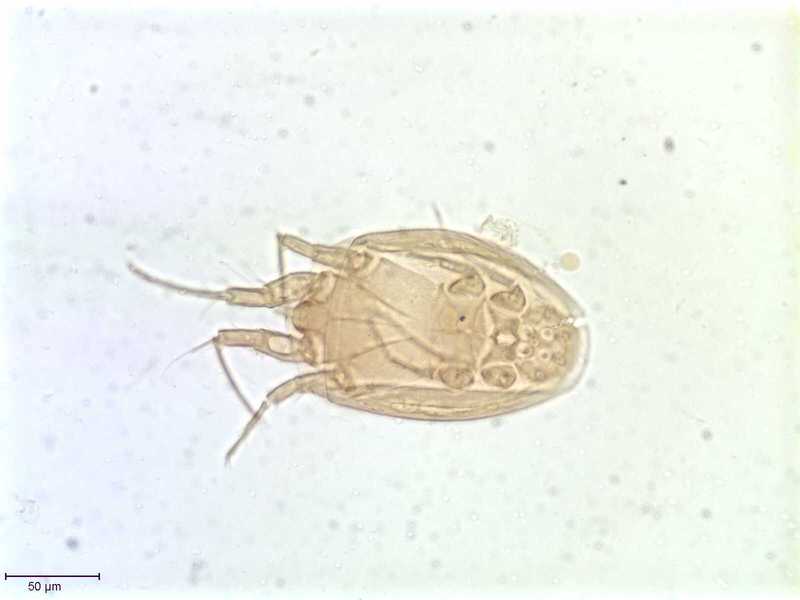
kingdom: Animalia
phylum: Arthropoda
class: Arachnida
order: Sarcoptiformes
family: Histiostomatidae
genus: Histiostoma
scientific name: Histiostoma prodectoris
